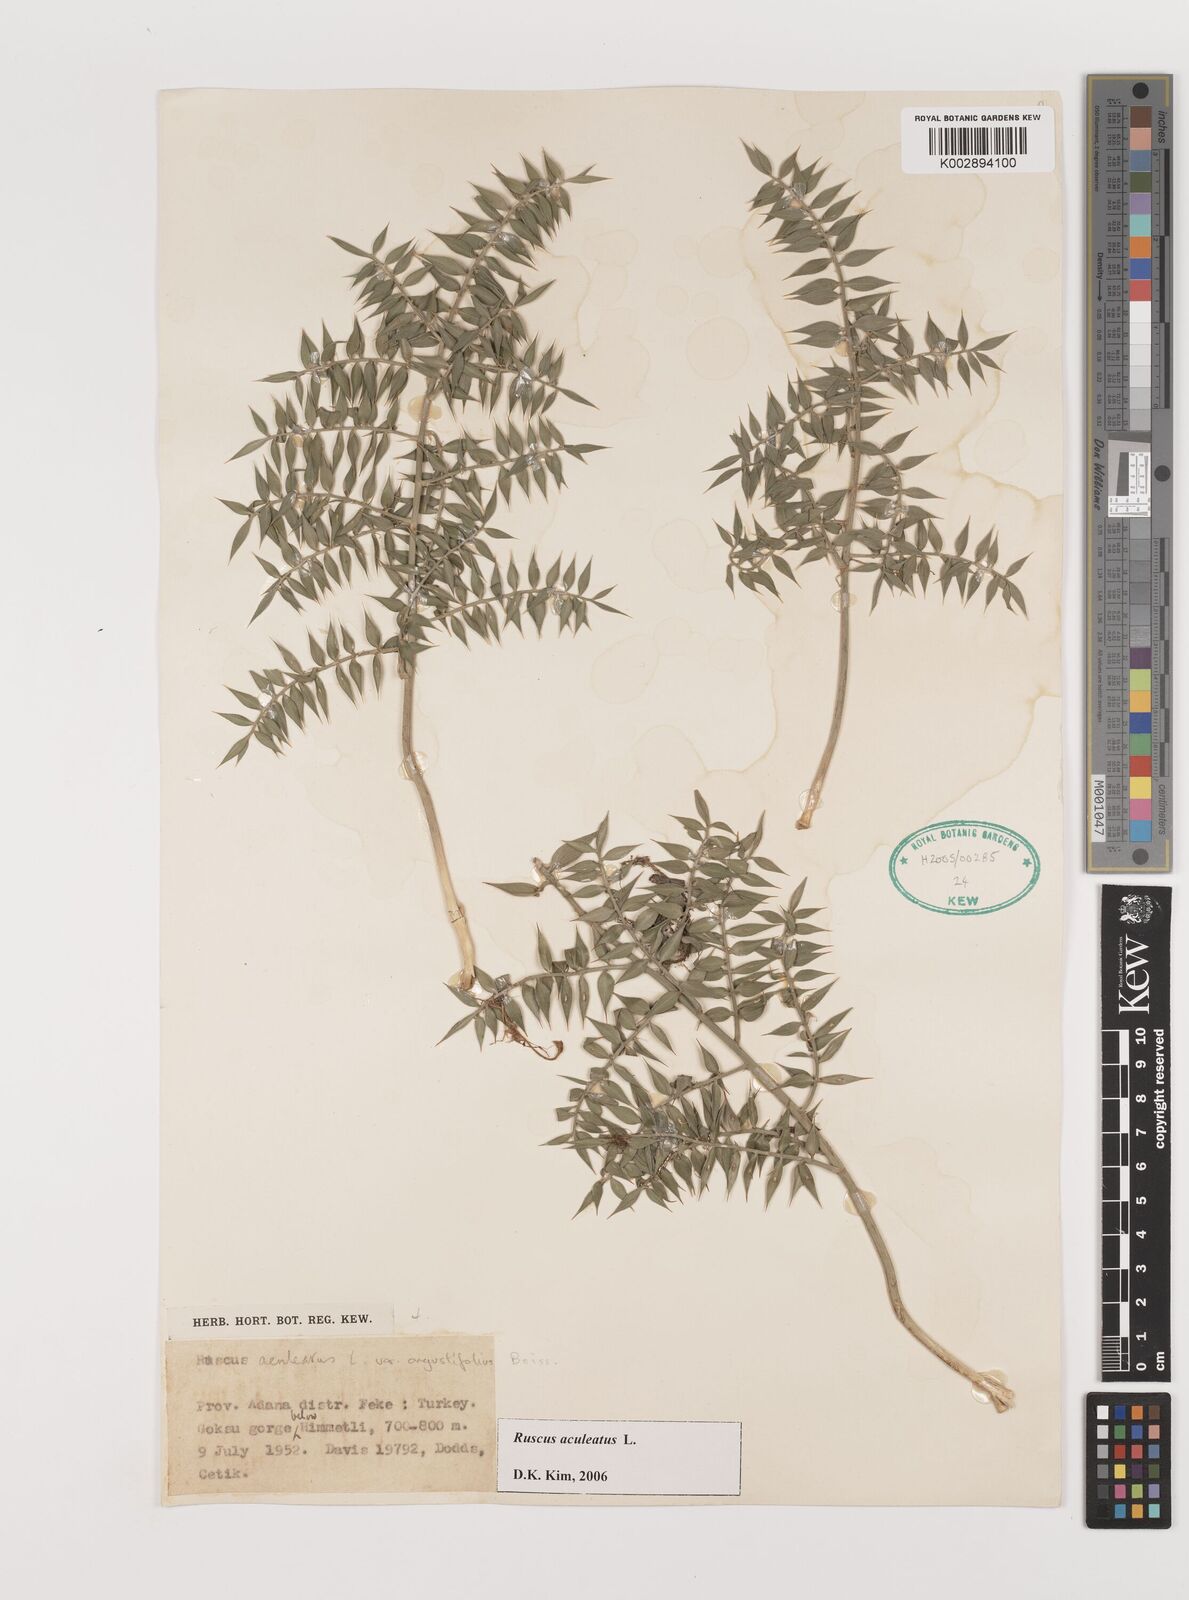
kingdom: Plantae
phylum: Tracheophyta
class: Liliopsida
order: Asparagales
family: Asparagaceae
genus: Ruscus
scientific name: Ruscus aculeatus
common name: Butcher's-broom
